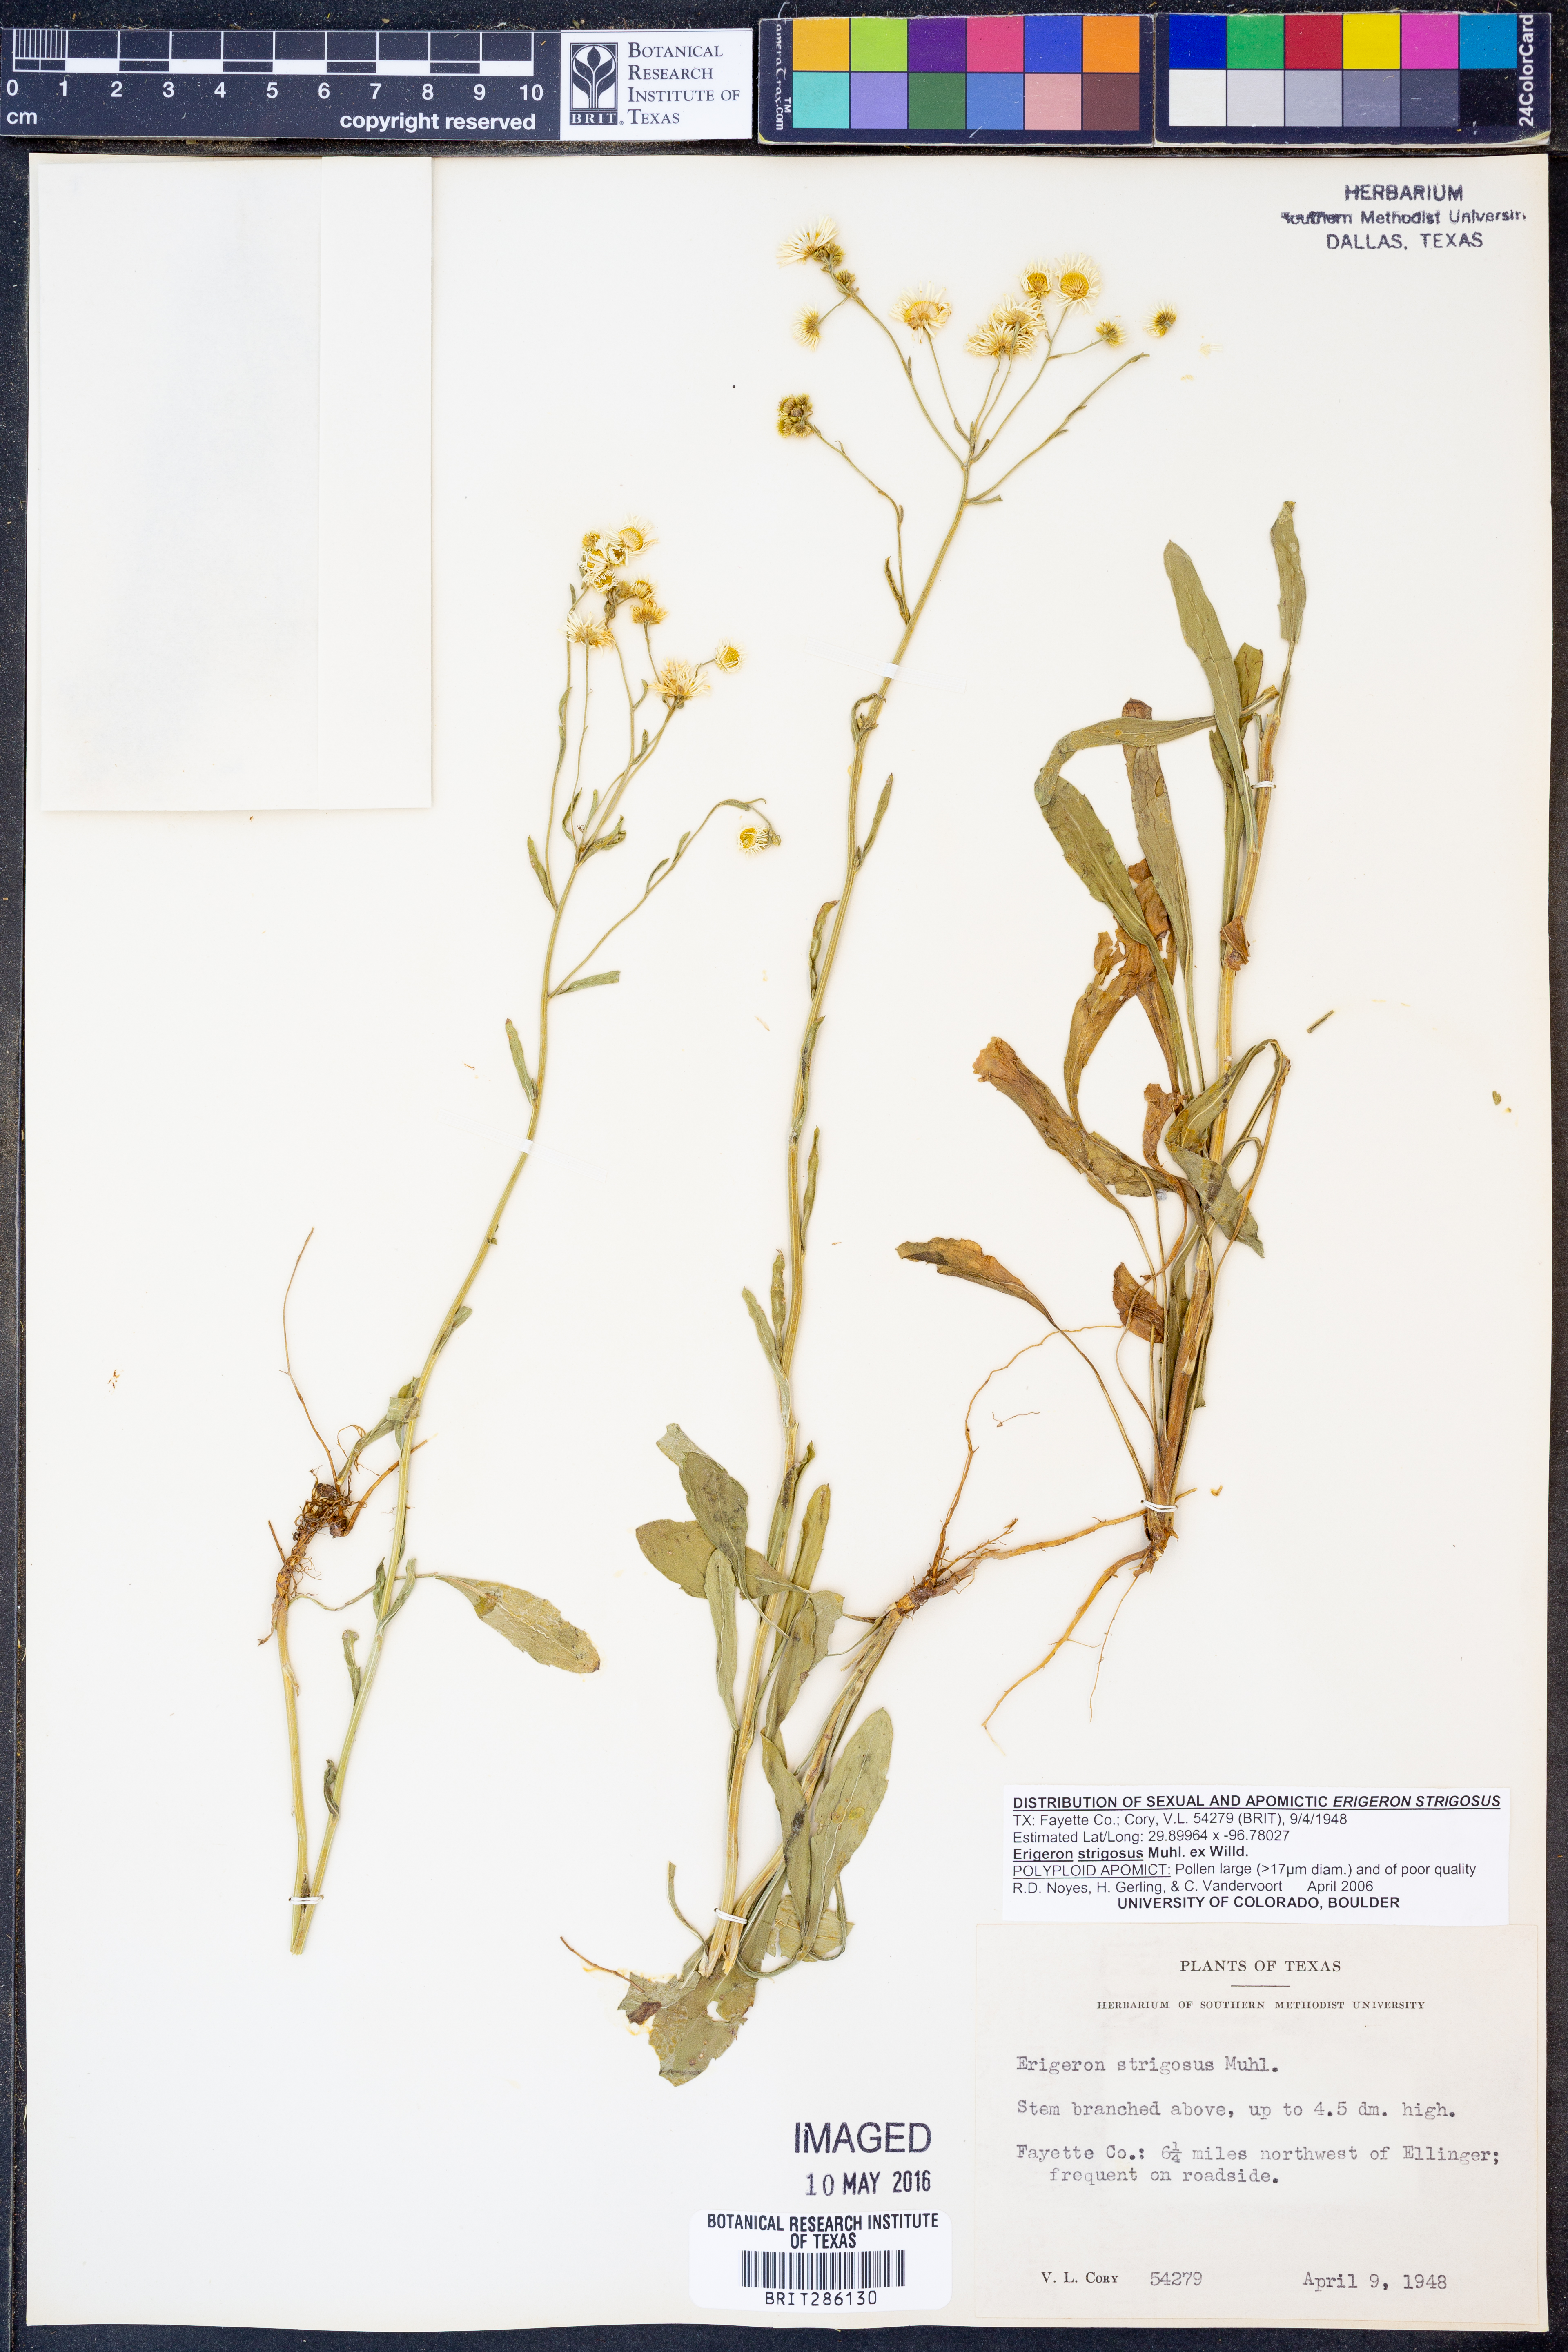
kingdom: Plantae
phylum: Tracheophyta
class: Magnoliopsida
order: Asterales
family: Asteraceae
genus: Erigeron
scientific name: Erigeron strigosus
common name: Common eastern fleabane
